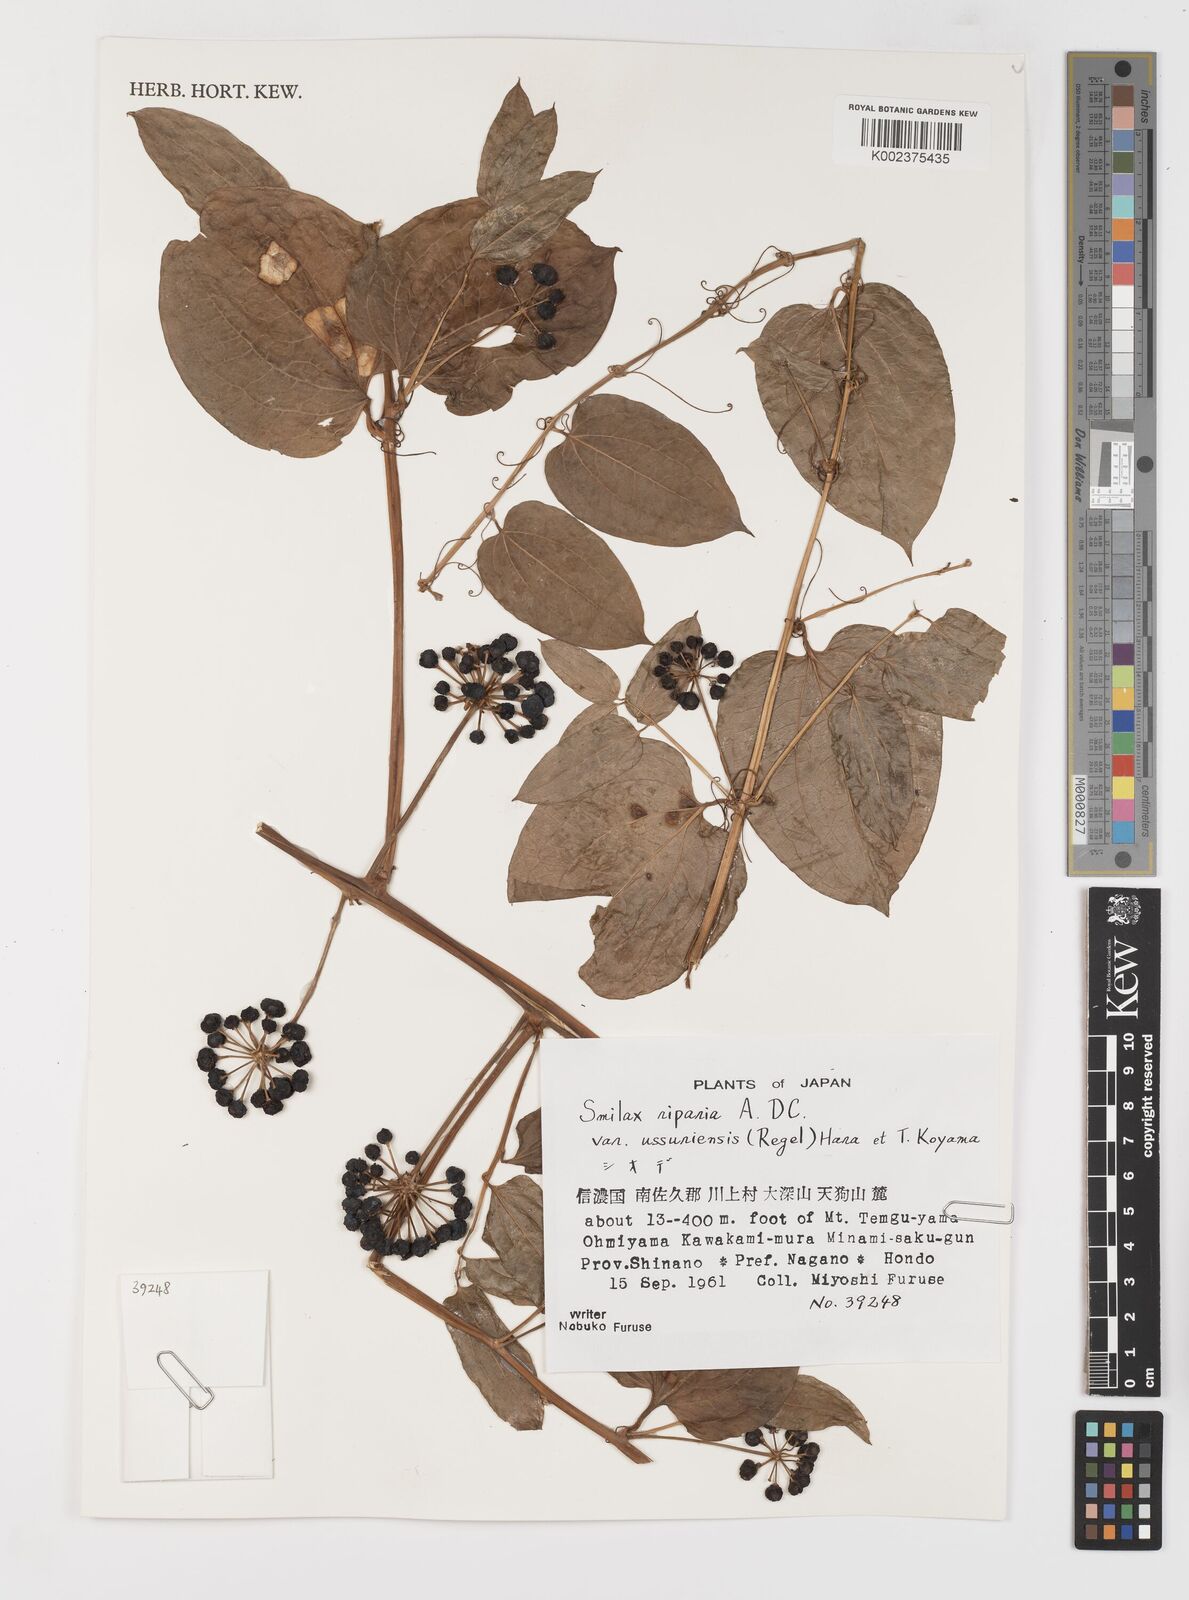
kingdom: Plantae
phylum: Tracheophyta
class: Liliopsida
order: Liliales
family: Smilacaceae
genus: Smilax
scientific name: Smilax riparia
